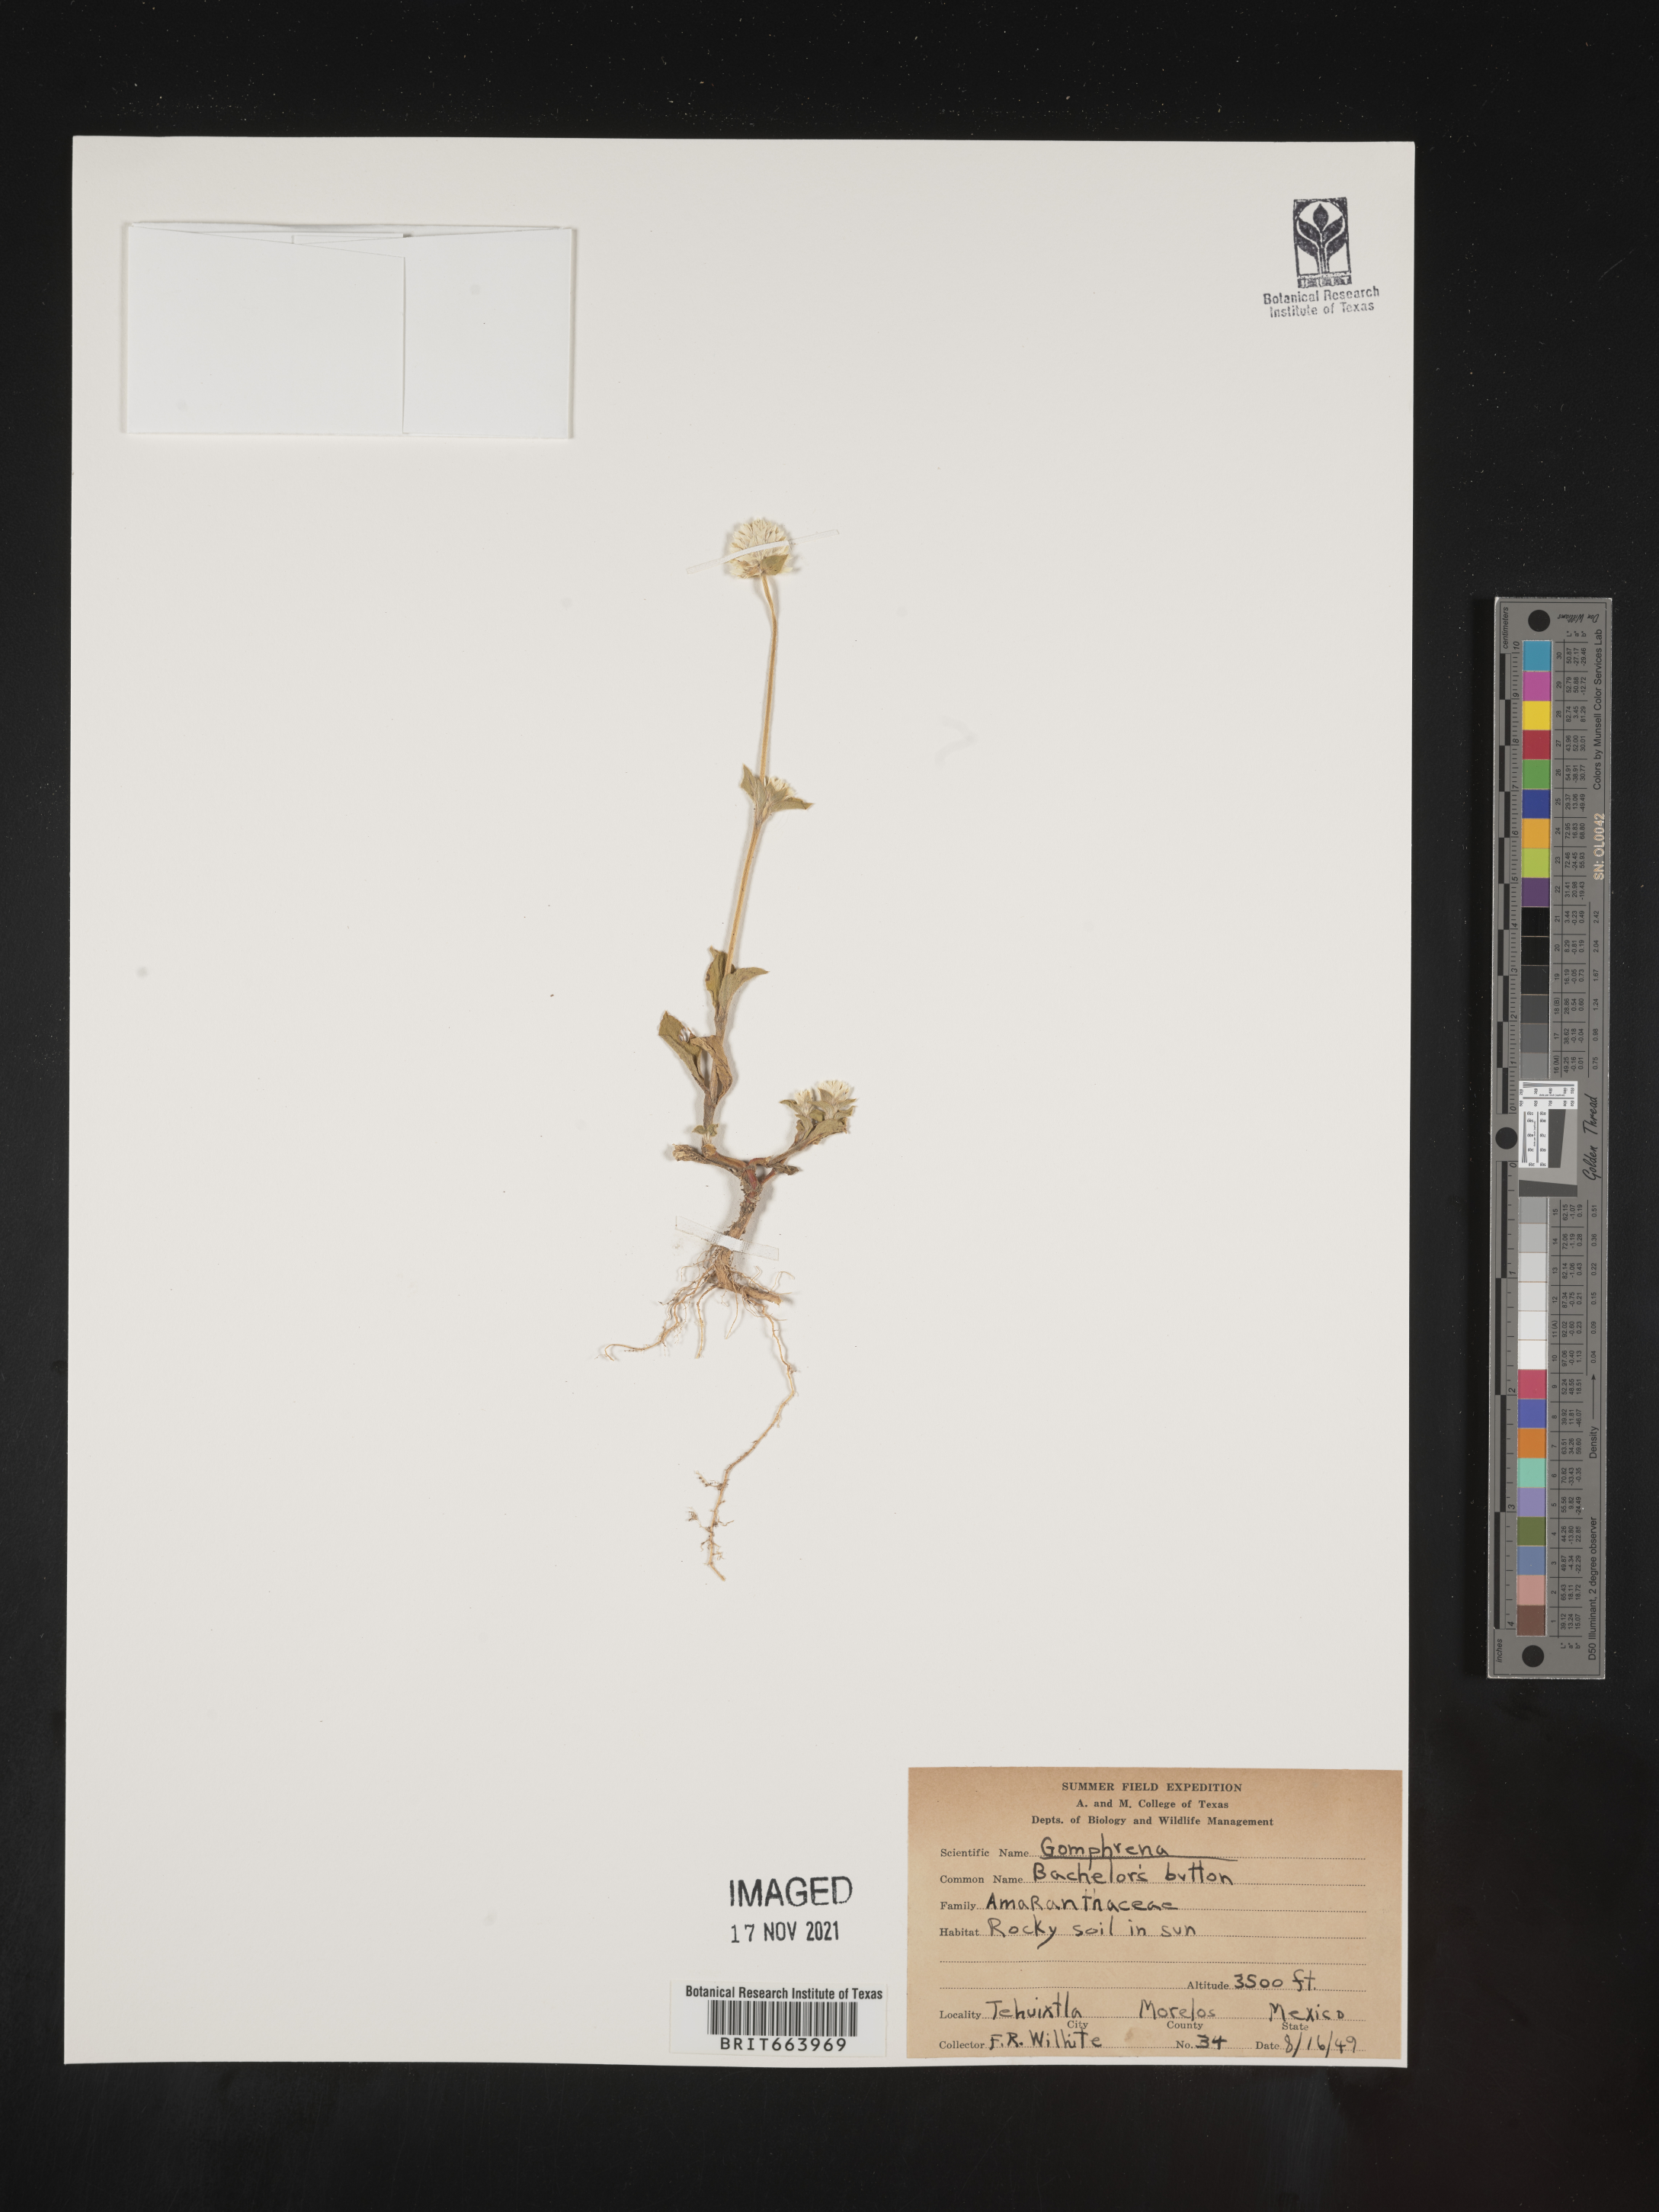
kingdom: Plantae
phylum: Tracheophyta
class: Magnoliopsida
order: Caryophyllales
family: Amaranthaceae
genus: Gomphrena
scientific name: Gomphrena
